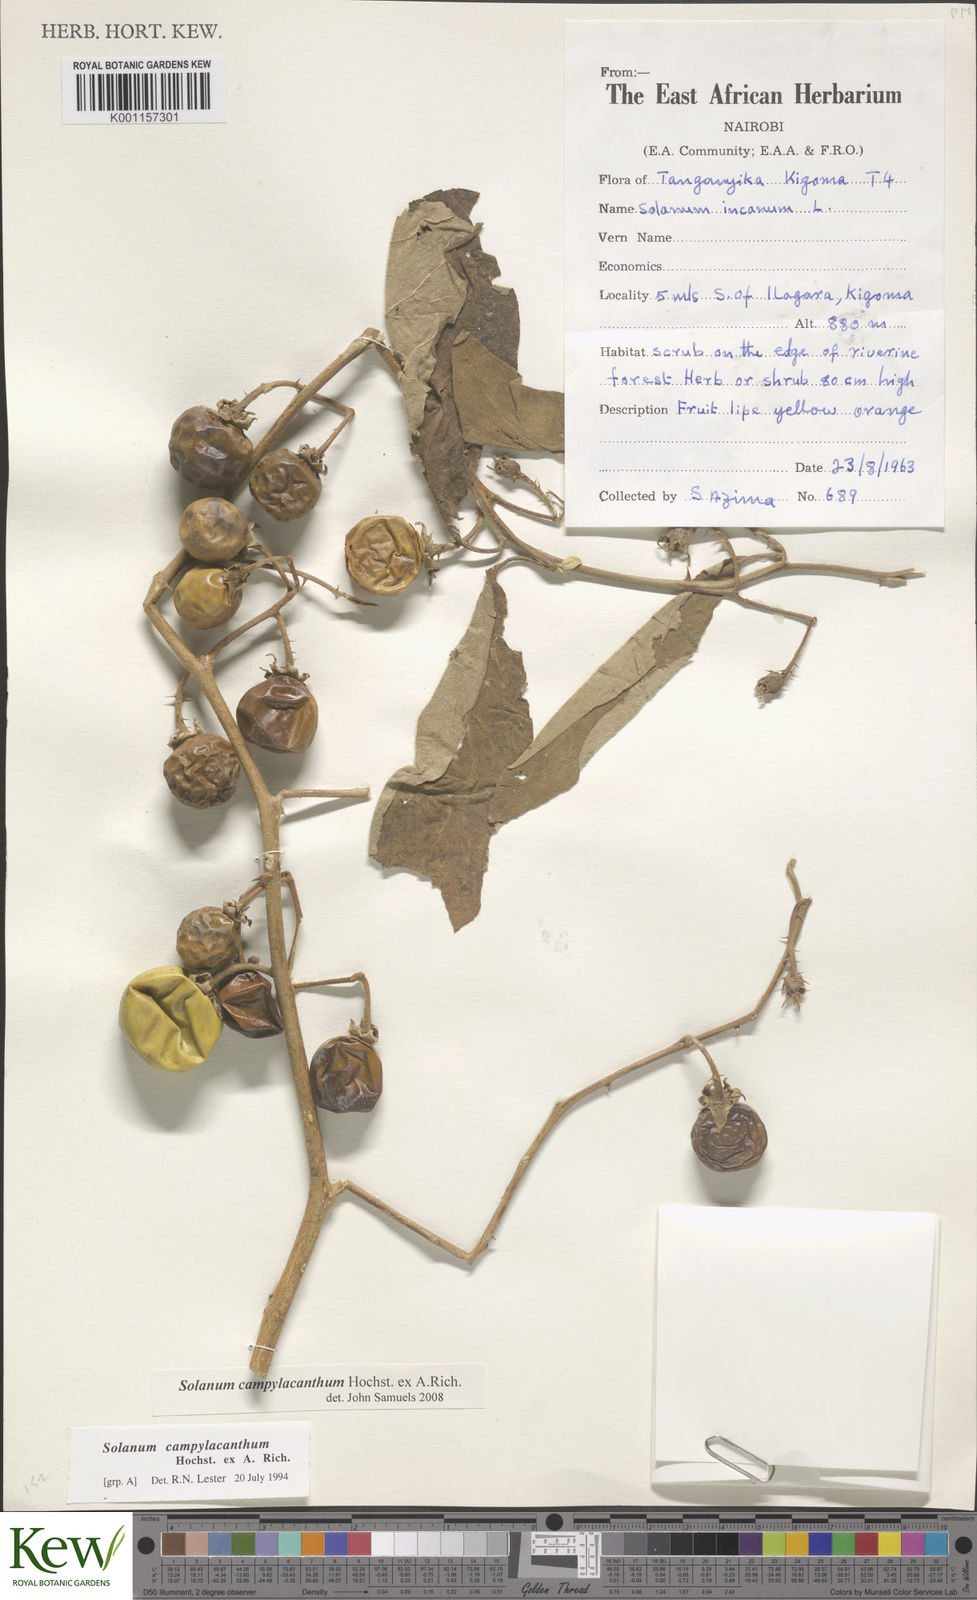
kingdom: Plantae
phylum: Tracheophyta
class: Magnoliopsida
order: Solanales
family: Solanaceae
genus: Solanum
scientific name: Solanum campylacanthum
